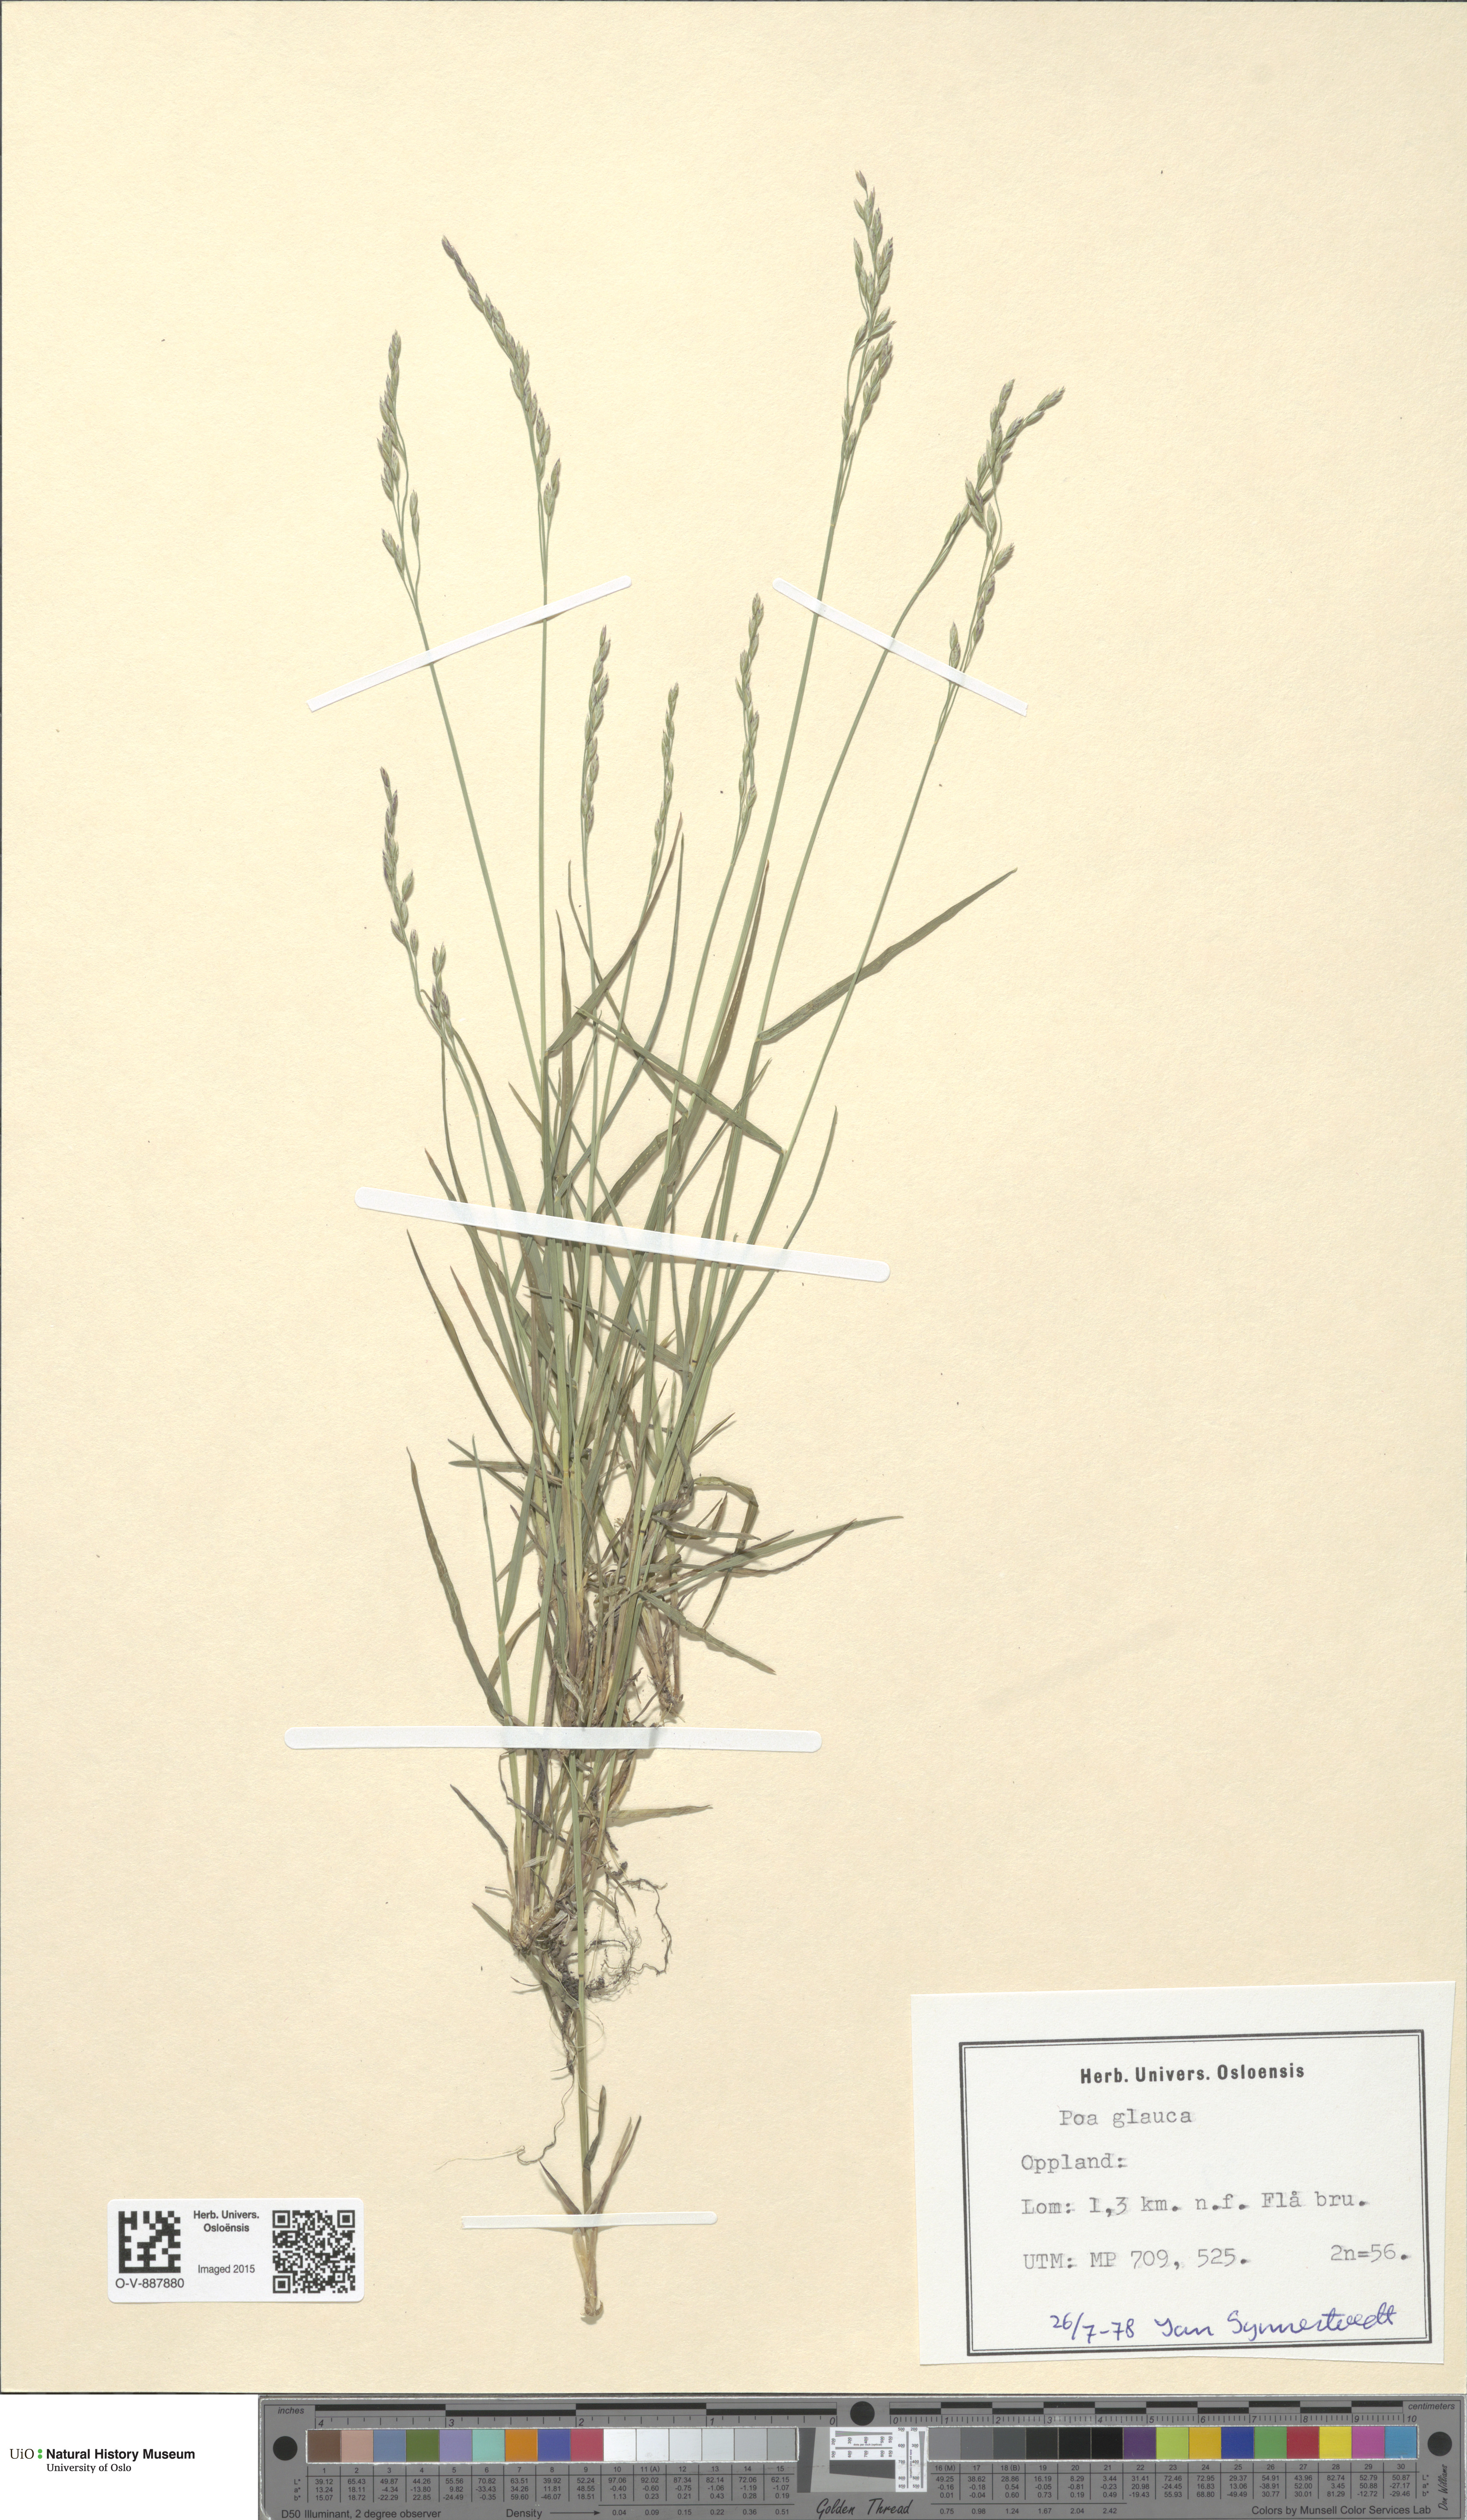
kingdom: Plantae
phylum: Tracheophyta
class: Liliopsida
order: Poales
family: Poaceae
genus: Poa
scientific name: Poa glauca
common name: Glaucous bluegrass
